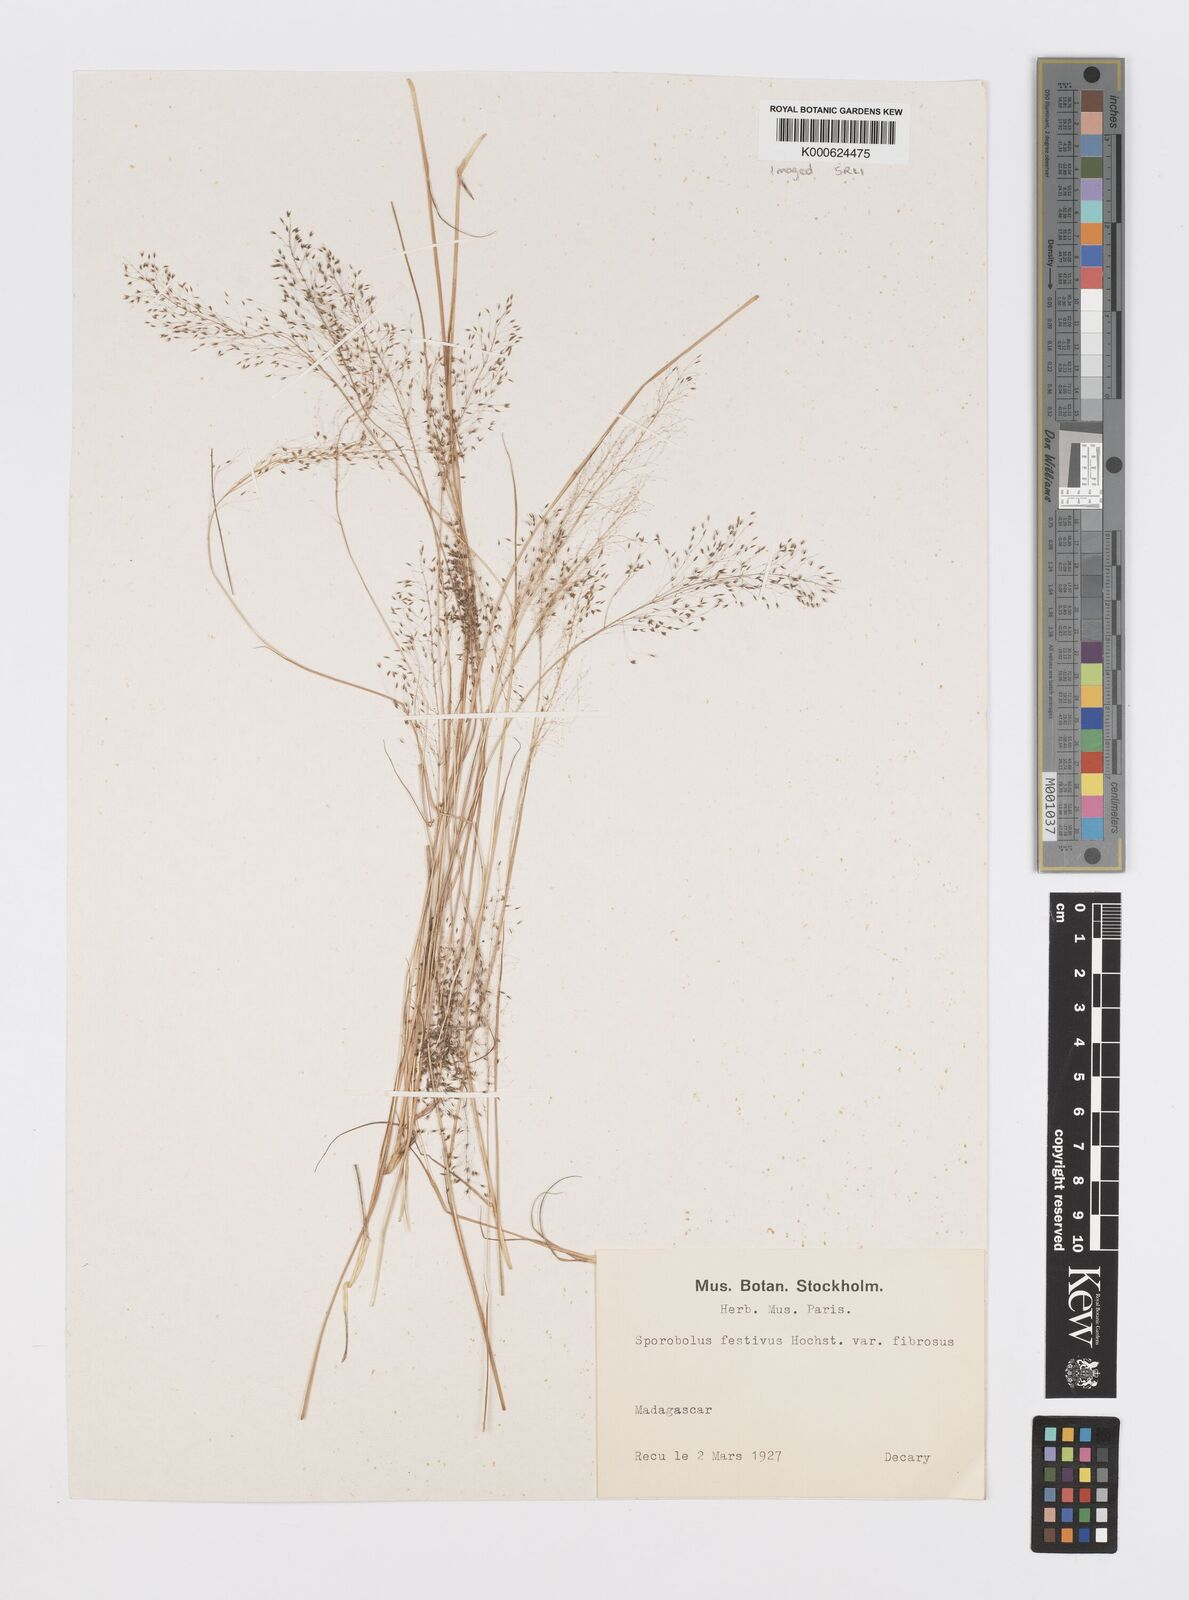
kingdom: Plantae
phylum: Tracheophyta
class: Liliopsida
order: Poales
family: Poaceae
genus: Sporobolus
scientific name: Sporobolus stapfianus
